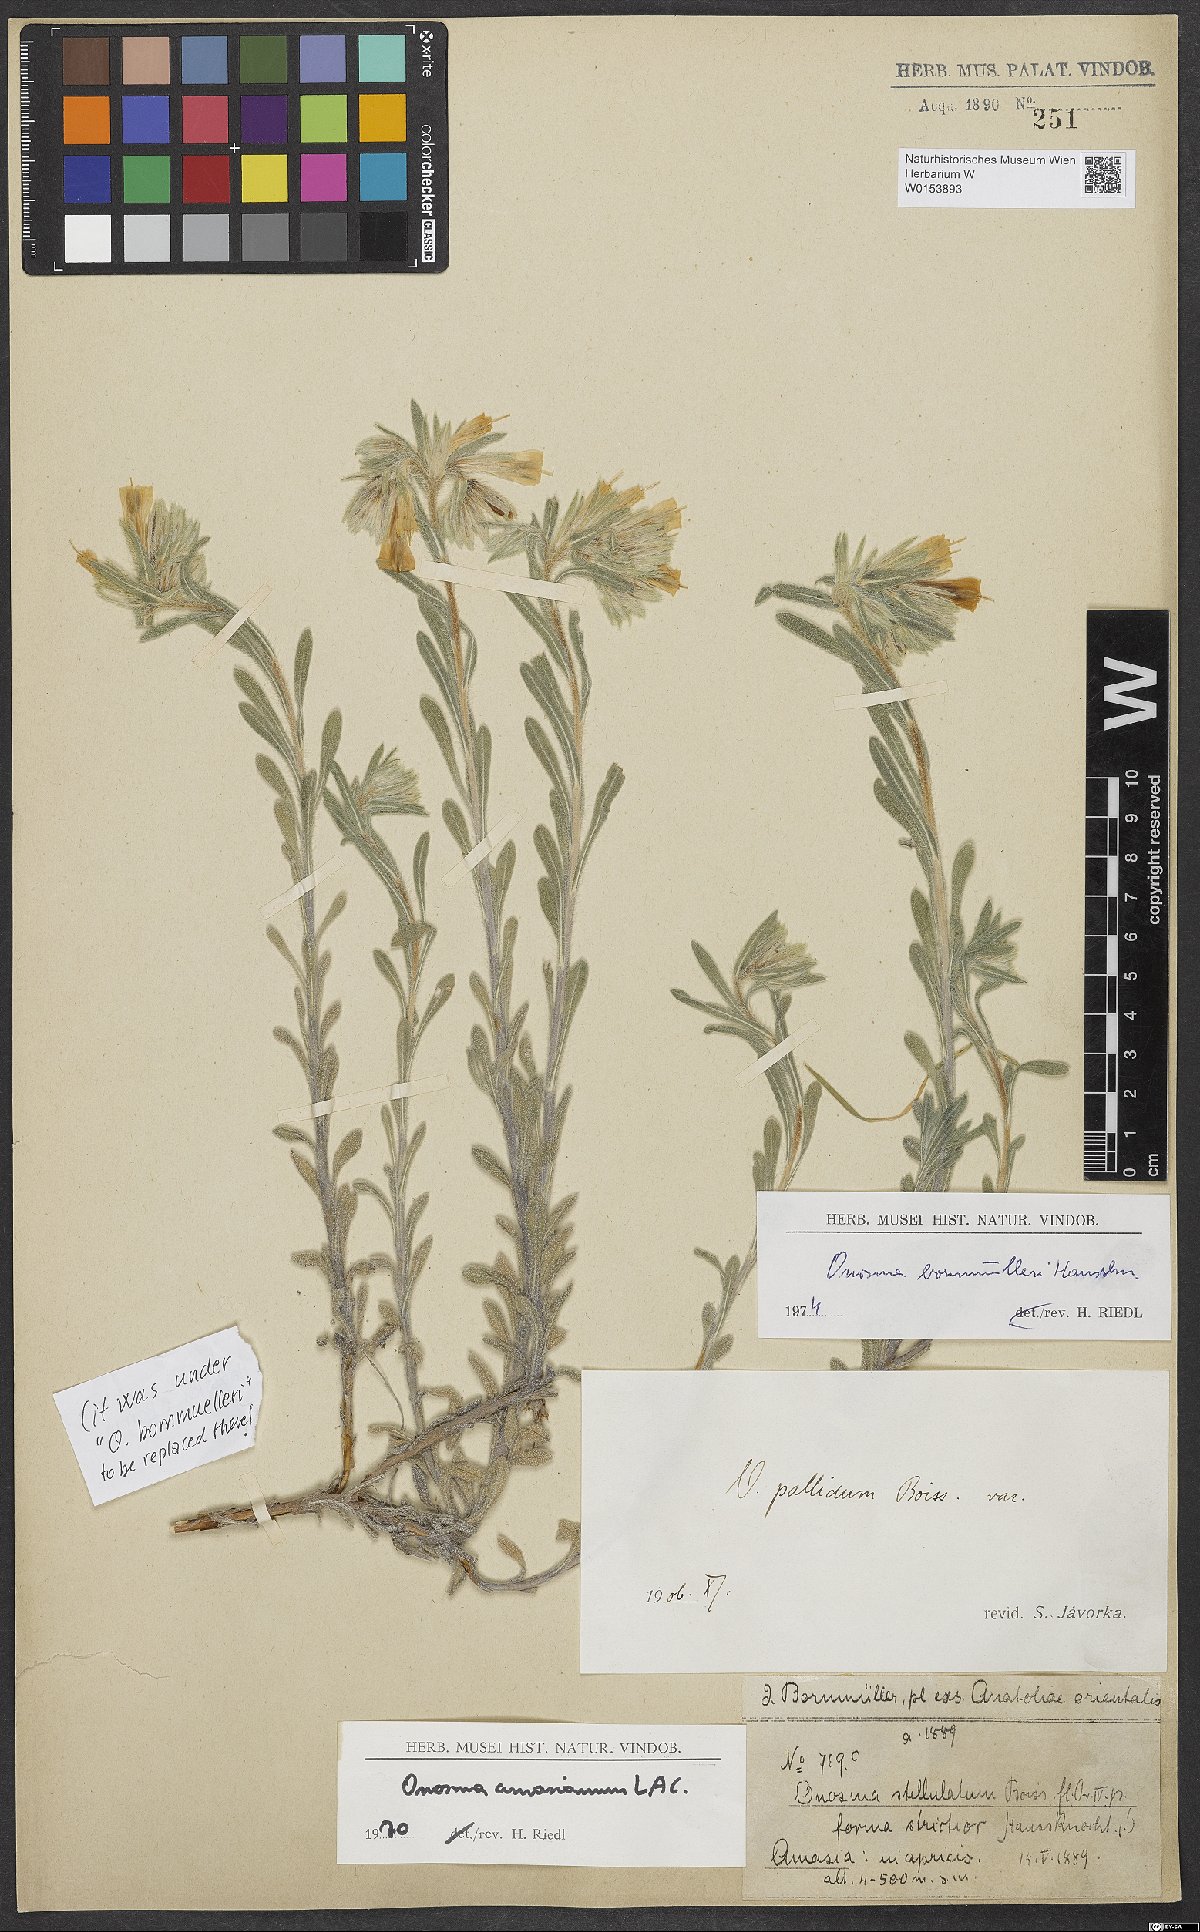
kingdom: Plantae
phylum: Tracheophyta
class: Magnoliopsida
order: Boraginales
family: Boraginaceae
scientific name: Boraginaceae
